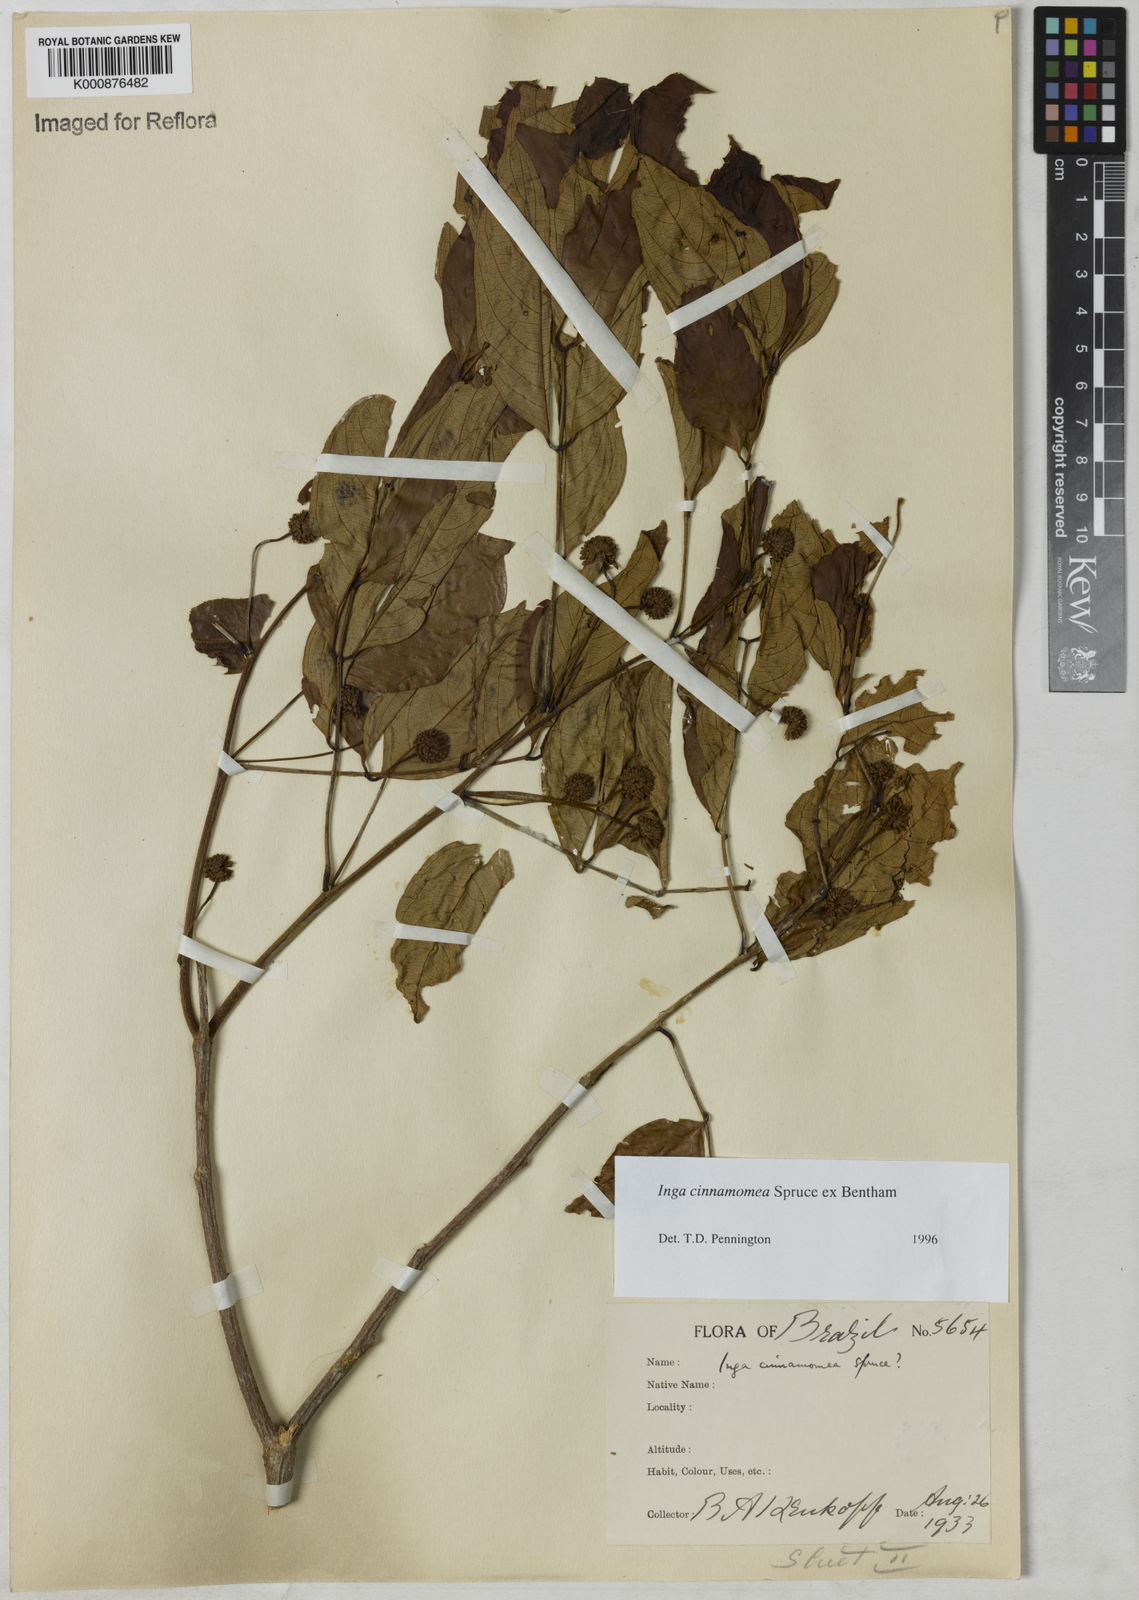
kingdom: Plantae
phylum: Tracheophyta
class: Magnoliopsida
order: Fabales
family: Fabaceae
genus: Inga
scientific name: Inga cinnamomea
